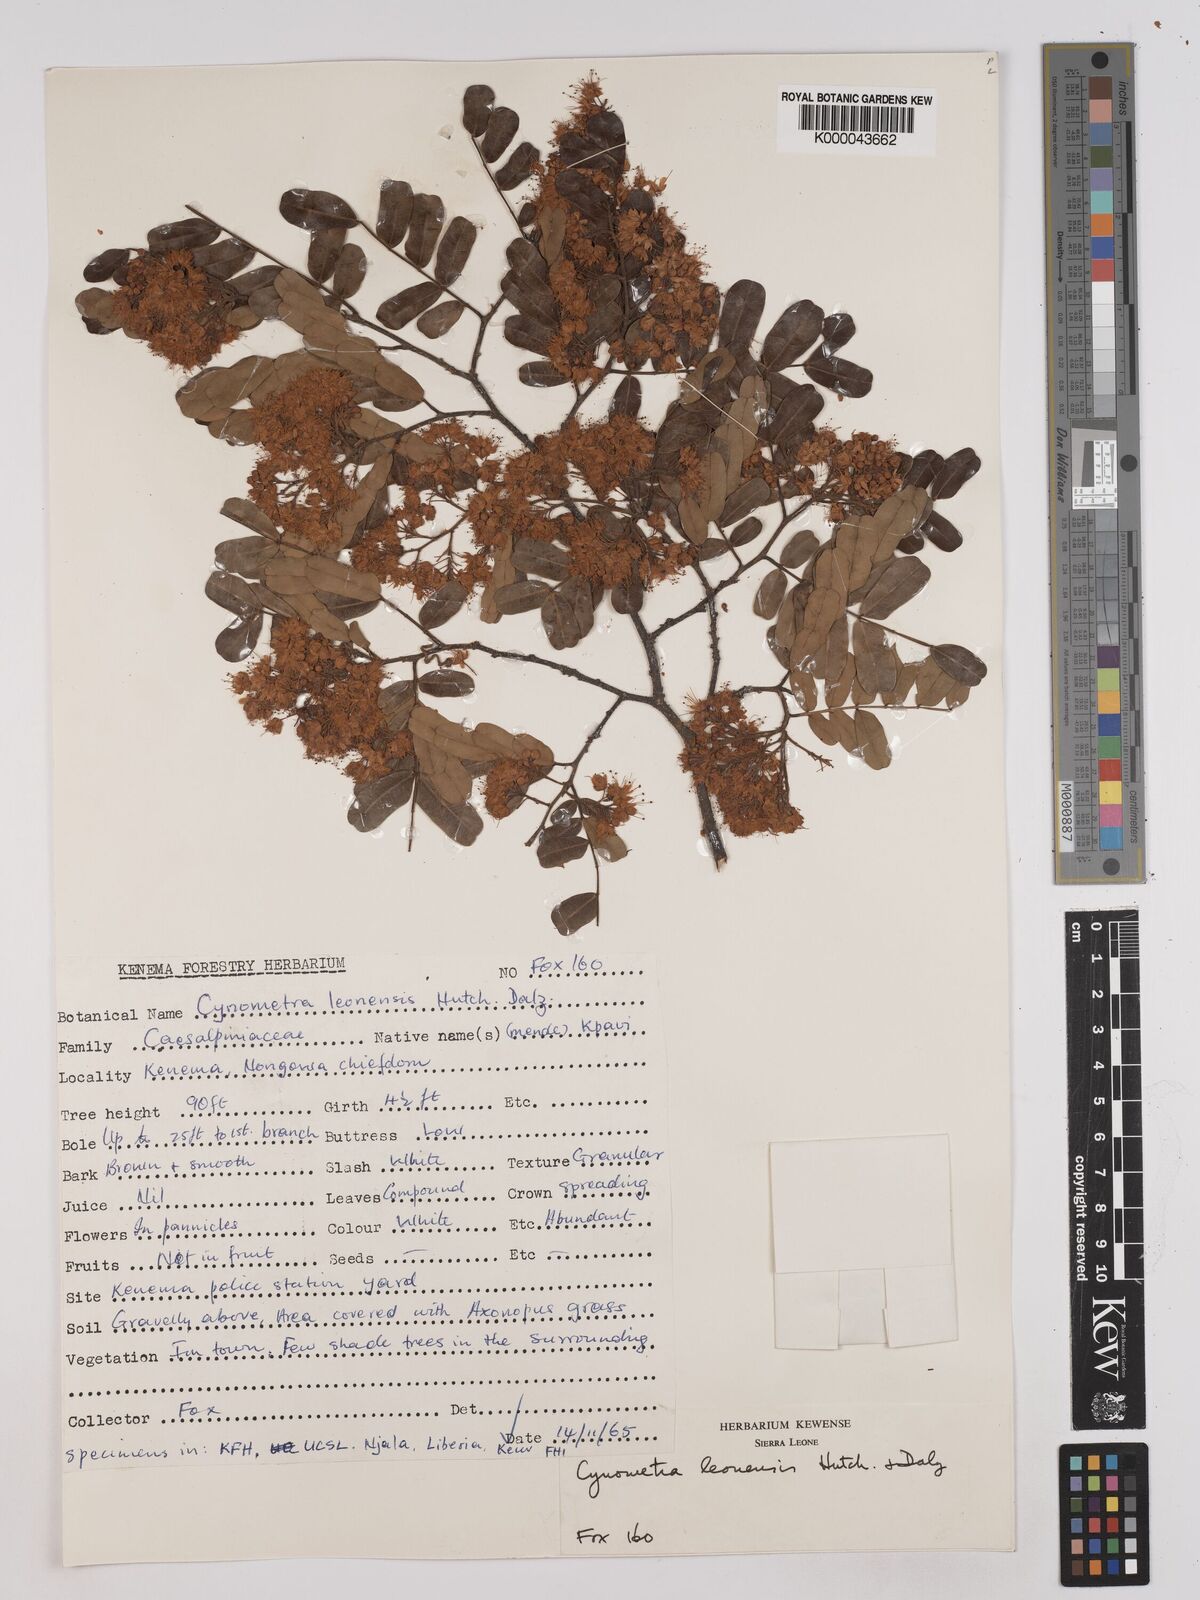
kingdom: Plantae
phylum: Tracheophyta
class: Magnoliopsida
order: Fabales
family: Fabaceae
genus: Cynometra
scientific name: Cynometra leonensis
